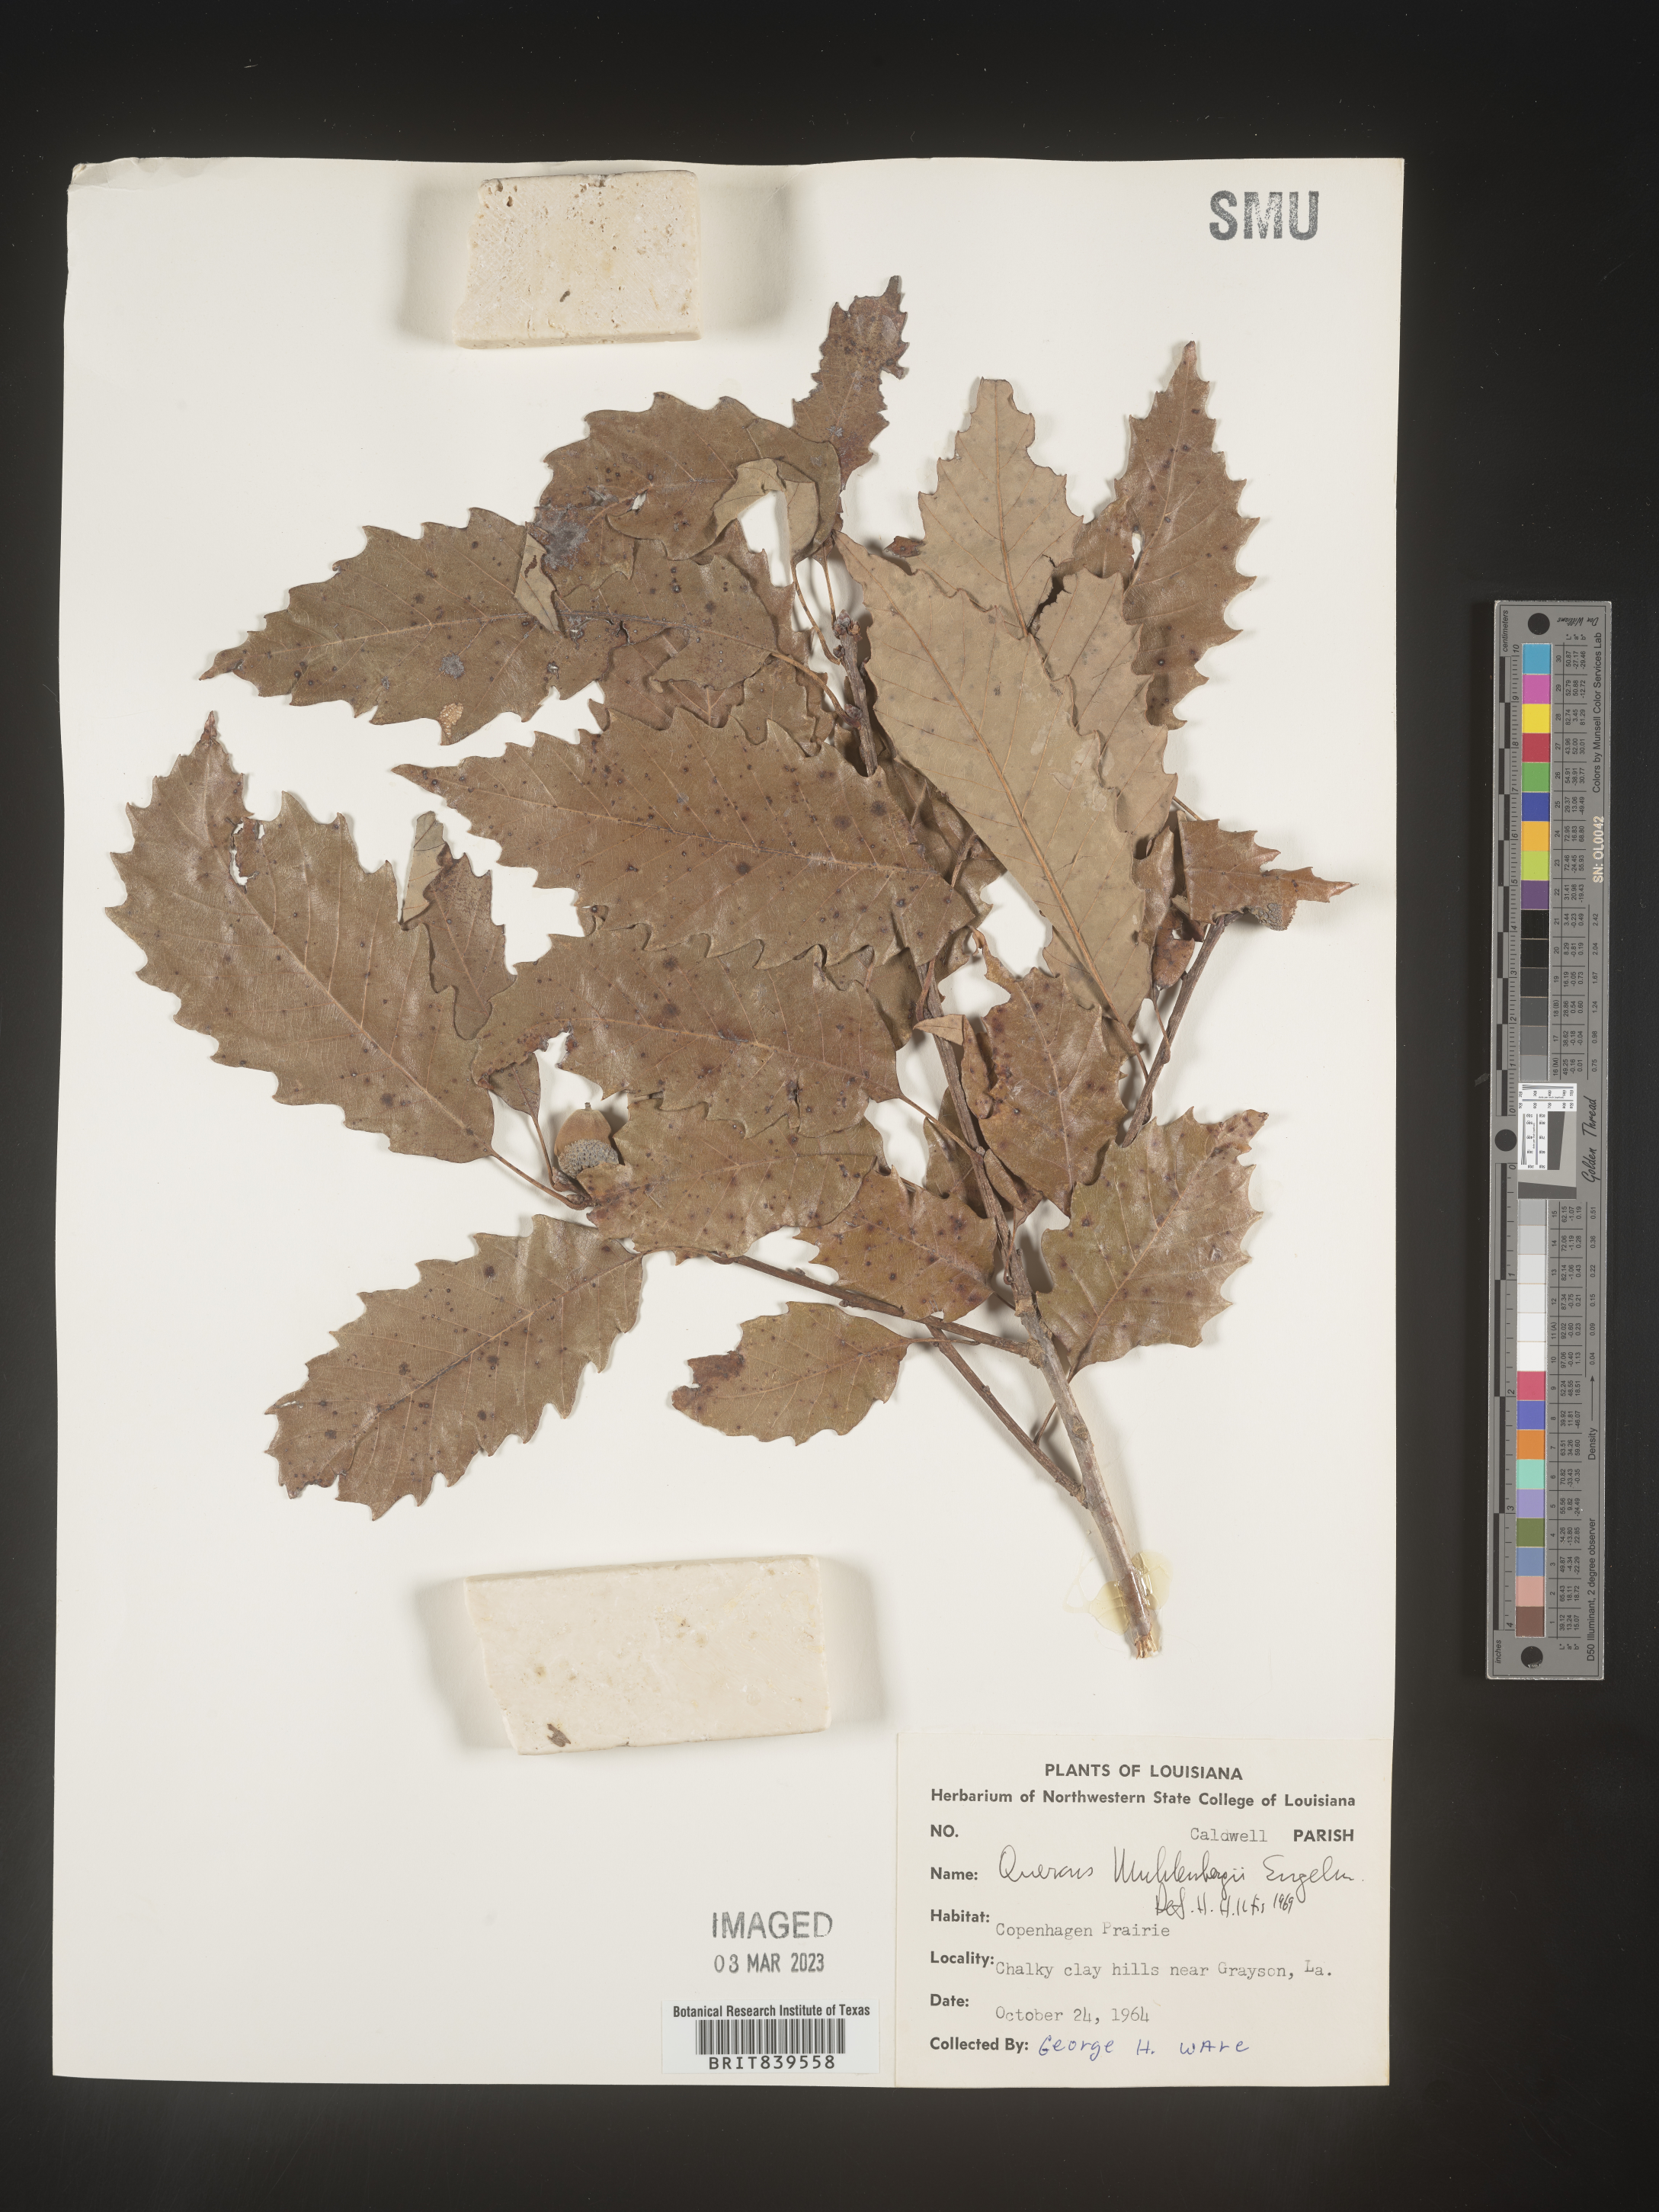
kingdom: Plantae
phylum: Tracheophyta
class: Magnoliopsida
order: Fagales
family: Fagaceae
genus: Quercus
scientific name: Quercus muehlenbergii
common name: Chinkapin oak
